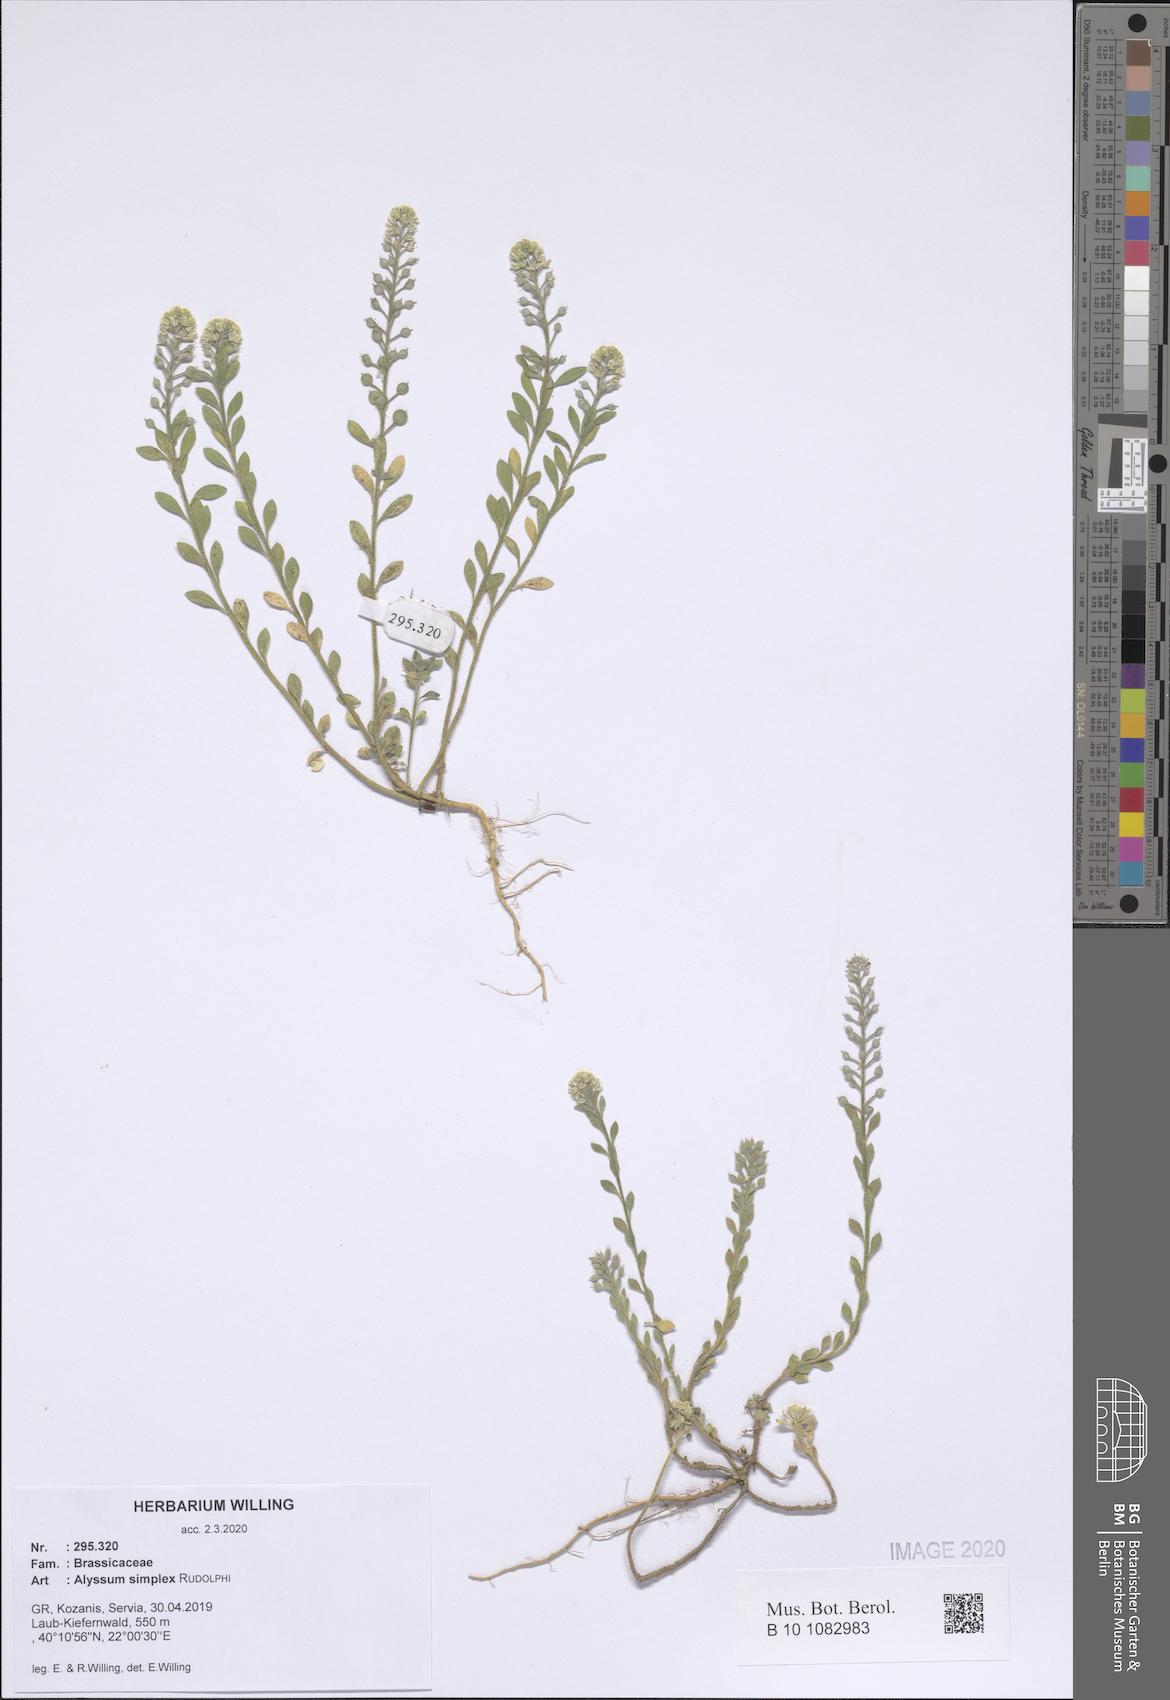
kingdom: Plantae
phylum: Tracheophyta
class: Magnoliopsida
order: Brassicales
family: Brassicaceae
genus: Alyssum
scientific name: Alyssum simplex
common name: Alyssum
